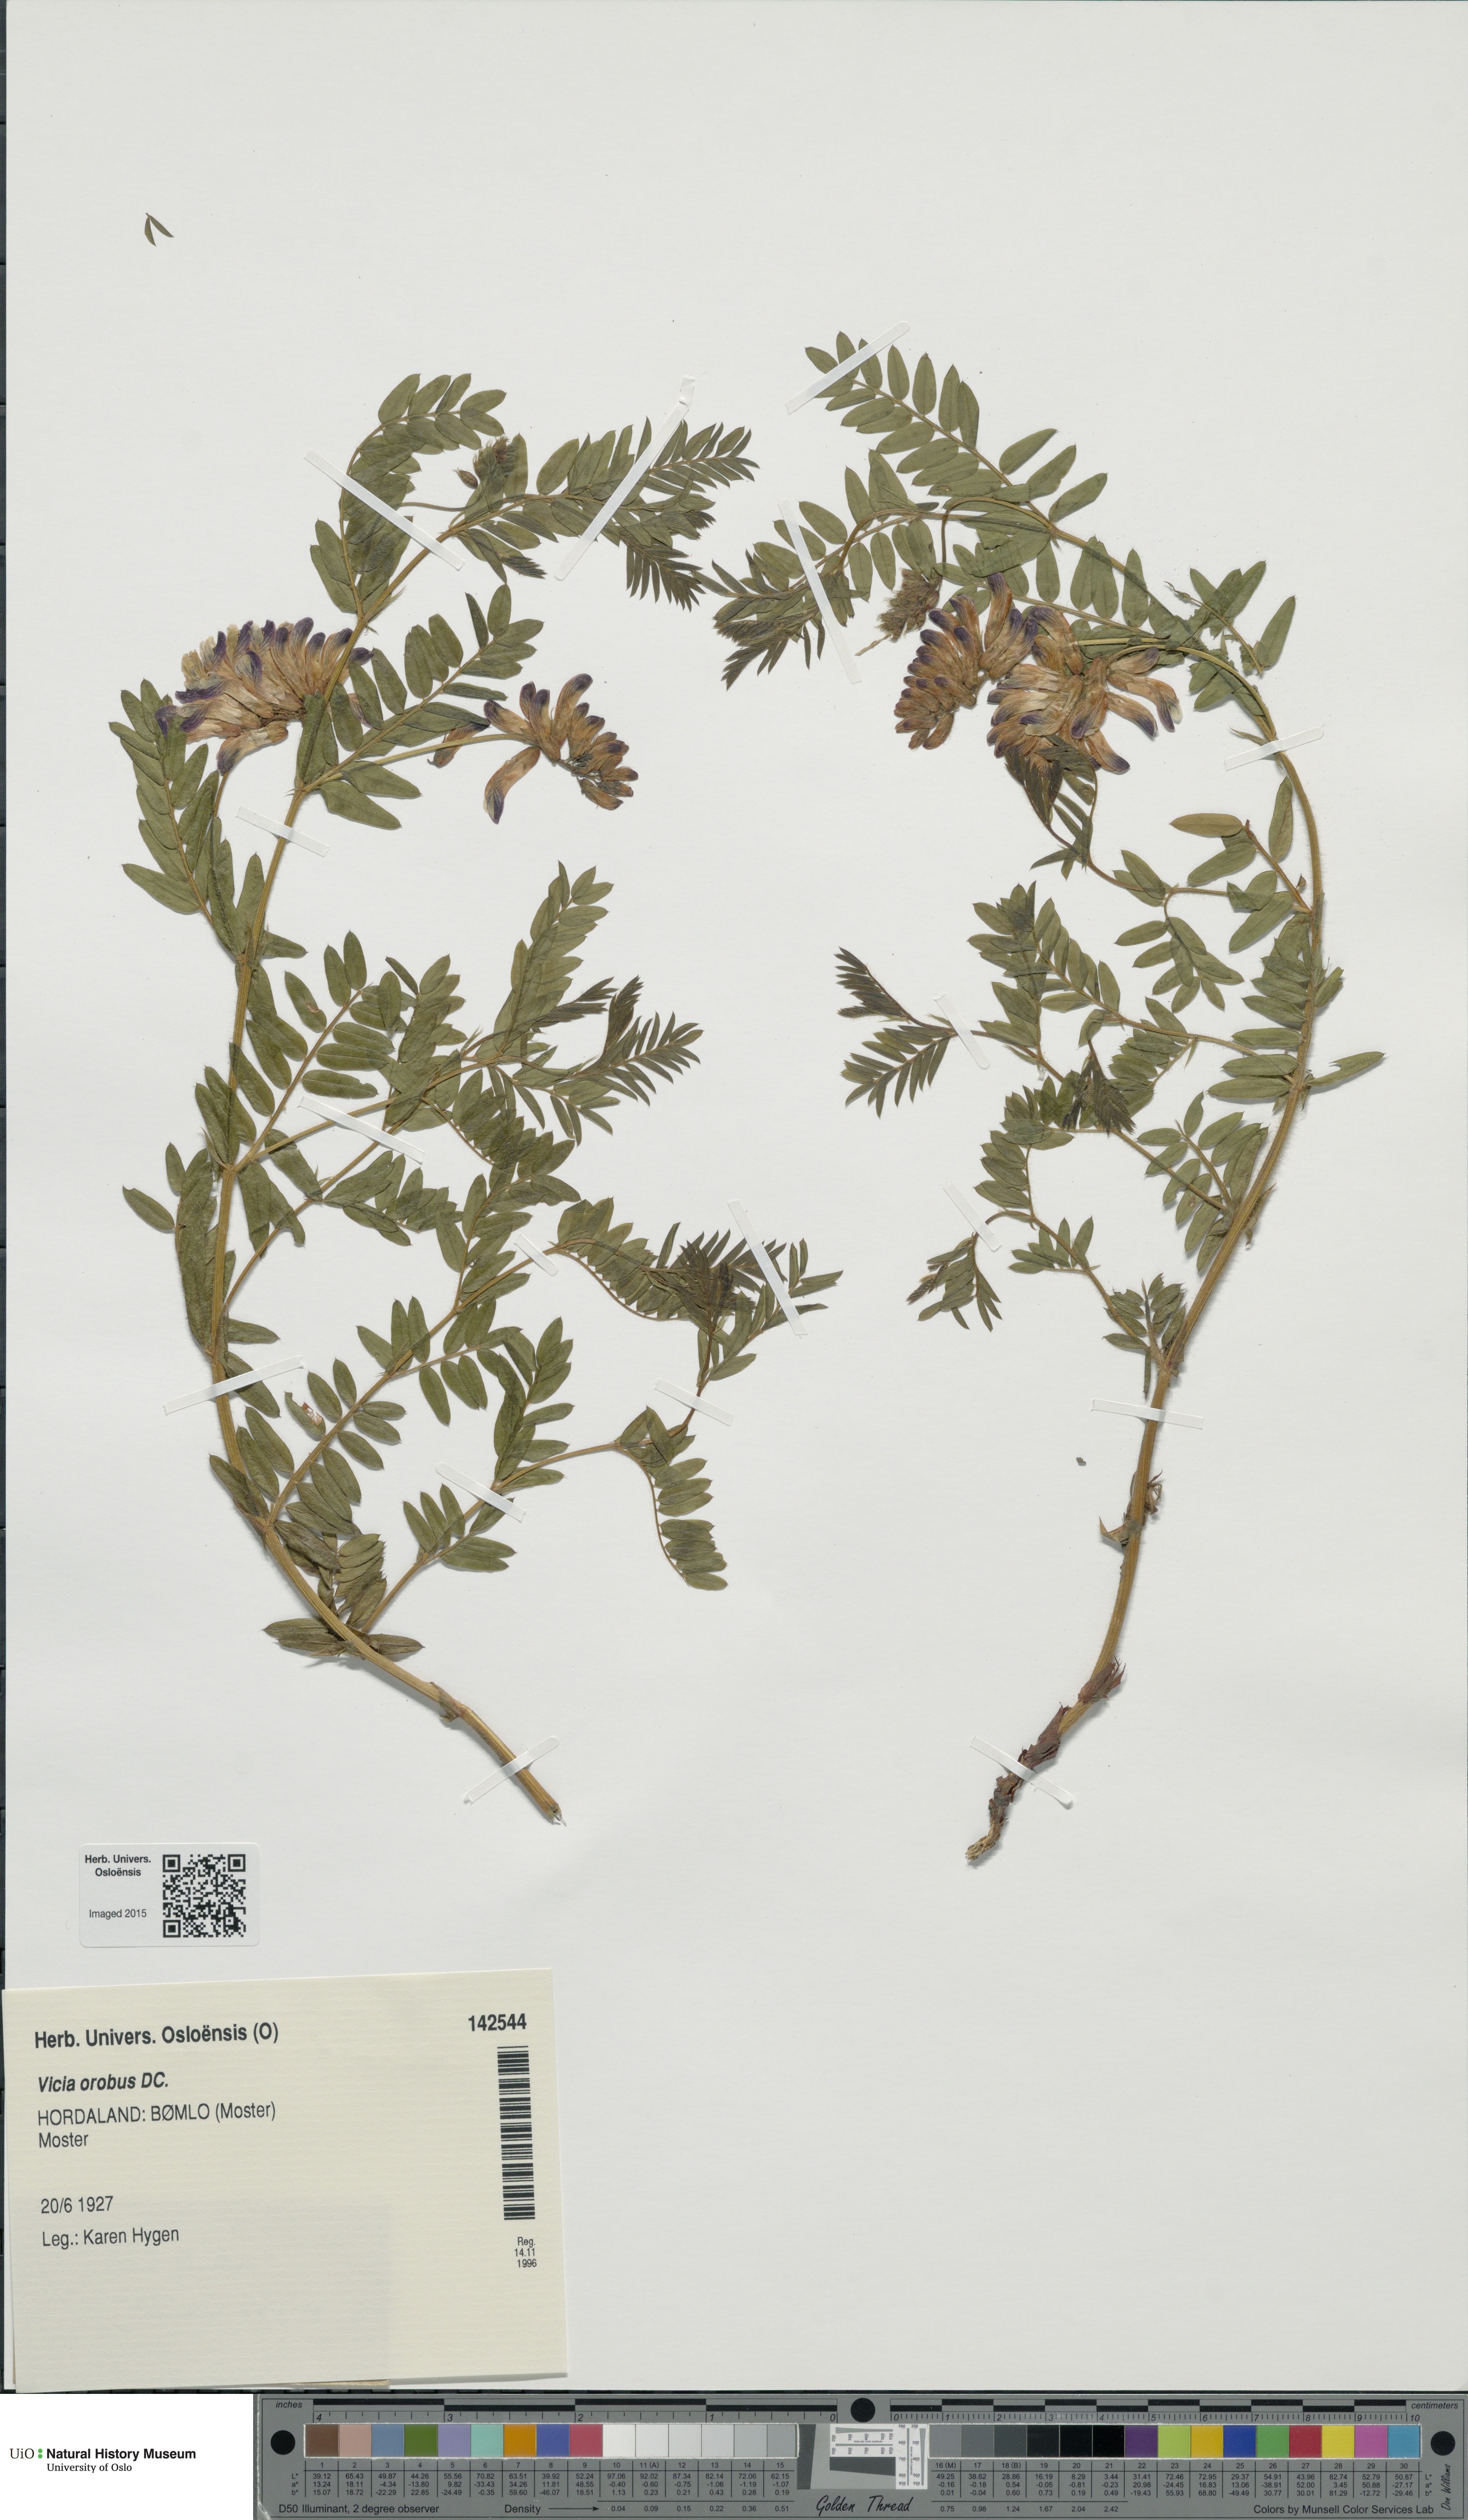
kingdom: Plantae
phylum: Tracheophyta
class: Magnoliopsida
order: Fabales
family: Fabaceae
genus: Vicia
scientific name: Vicia orobus
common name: Wood bitter-vetch
